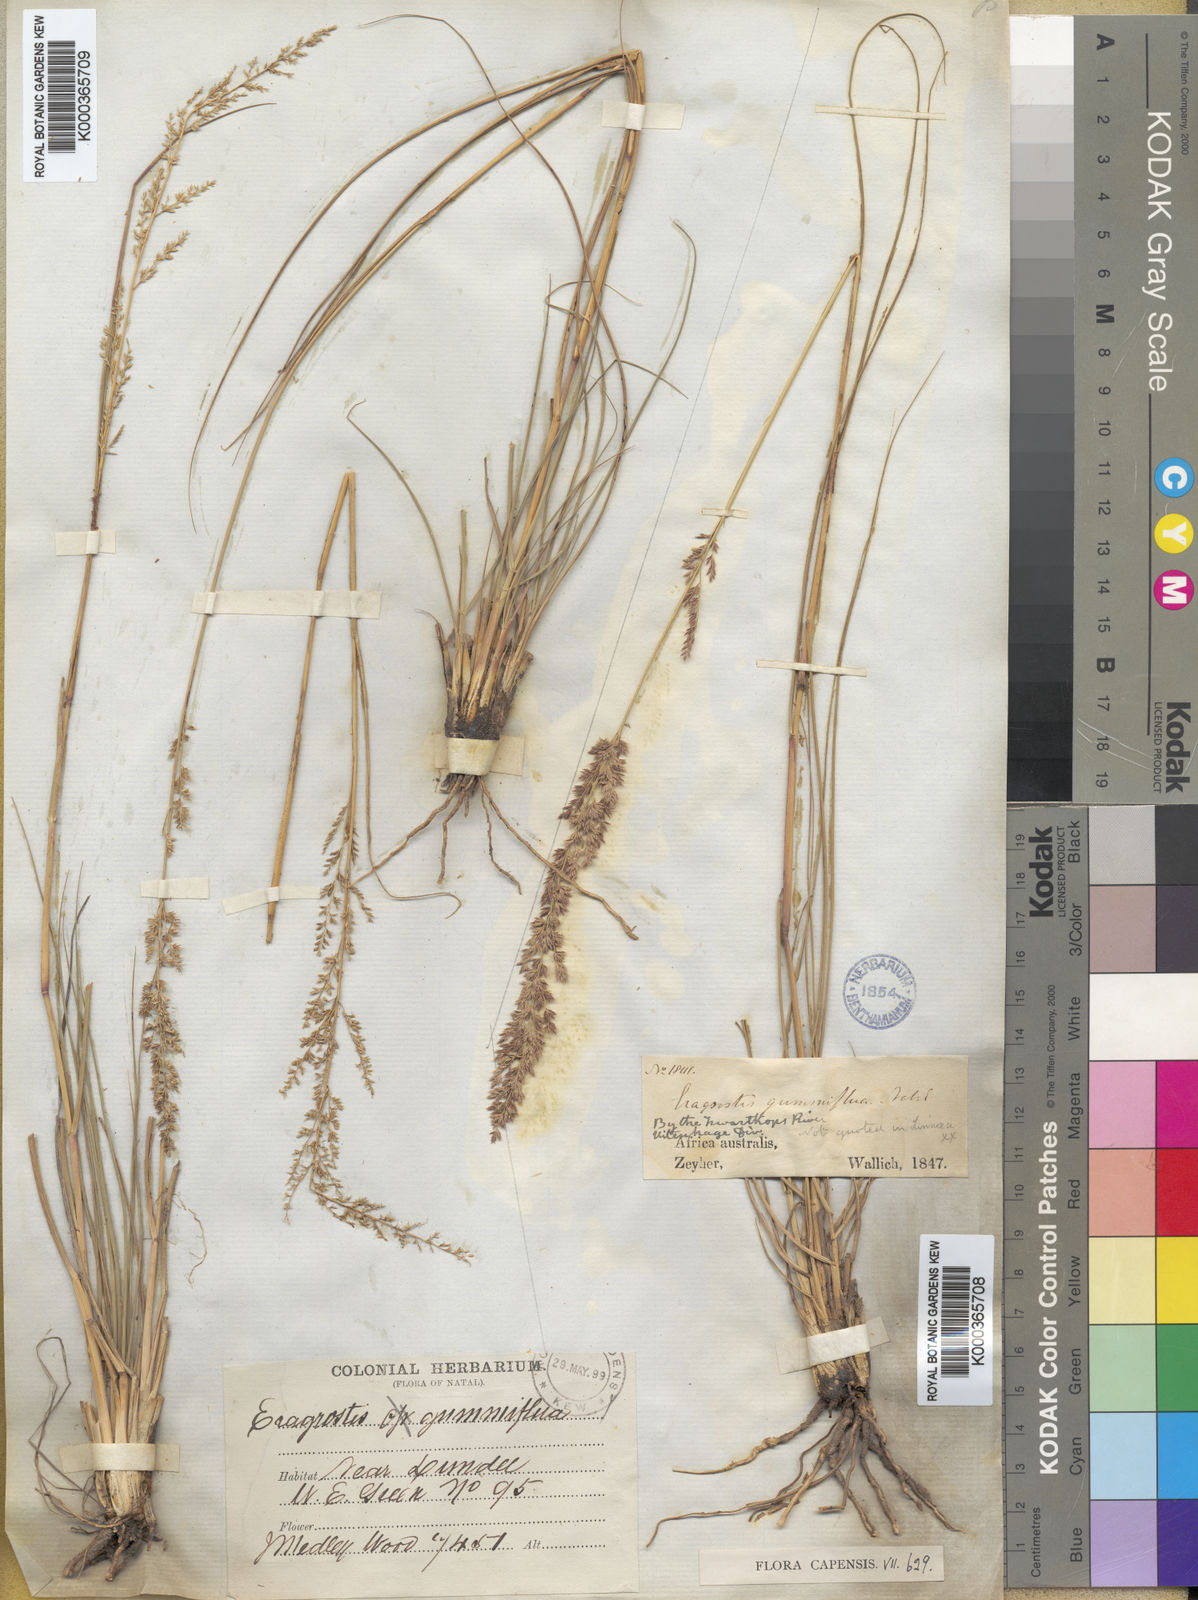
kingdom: Plantae
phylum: Tracheophyta
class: Liliopsida
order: Poales
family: Poaceae
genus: Eragrostis
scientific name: Eragrostis gummiflua
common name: Gum grass
